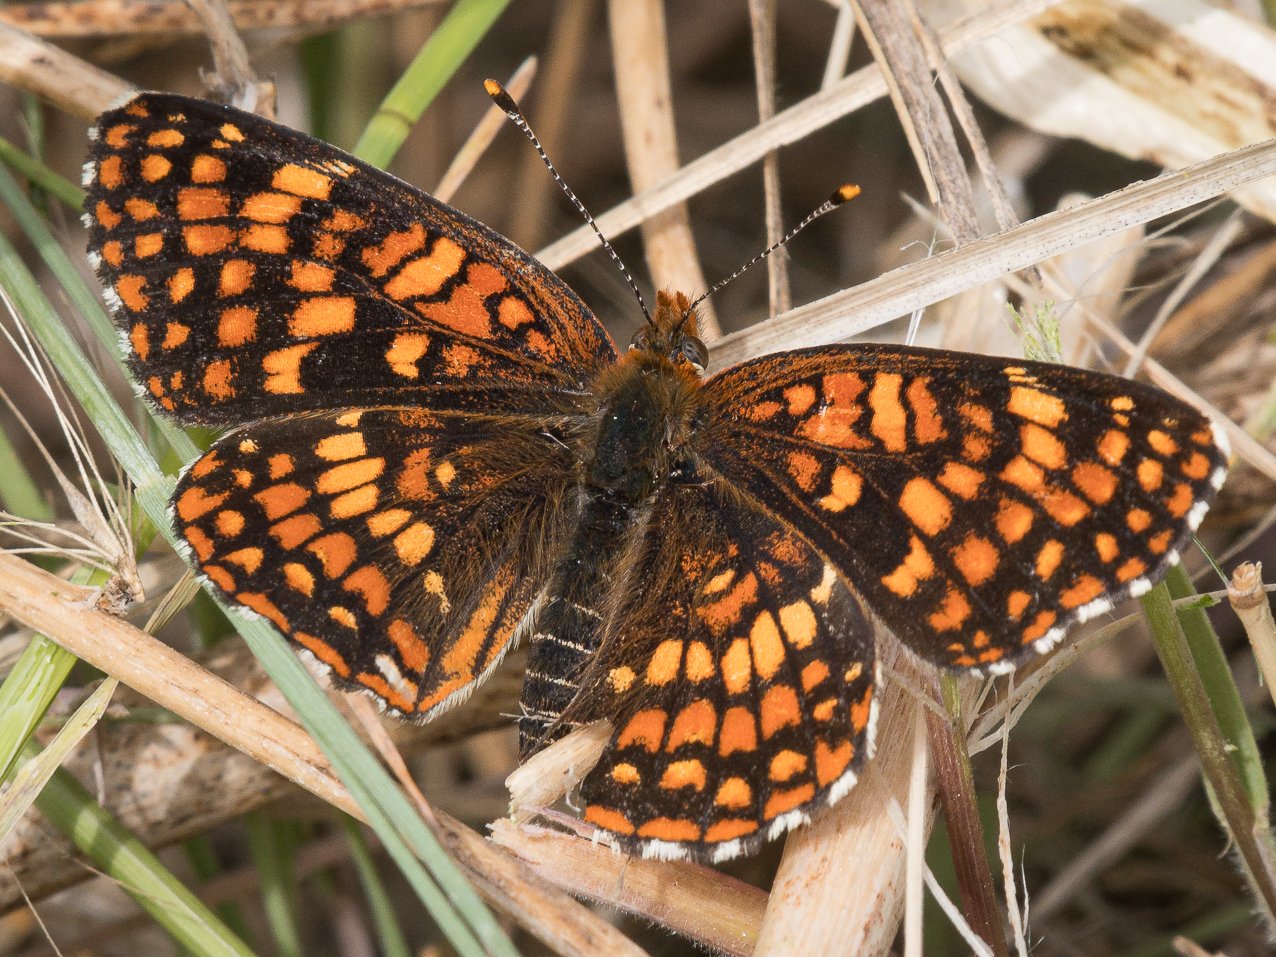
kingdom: Animalia
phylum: Arthropoda
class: Insecta
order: Lepidoptera
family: Nymphalidae
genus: Chlosyne
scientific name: Chlosyne palla
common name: Northern Checkerspot
